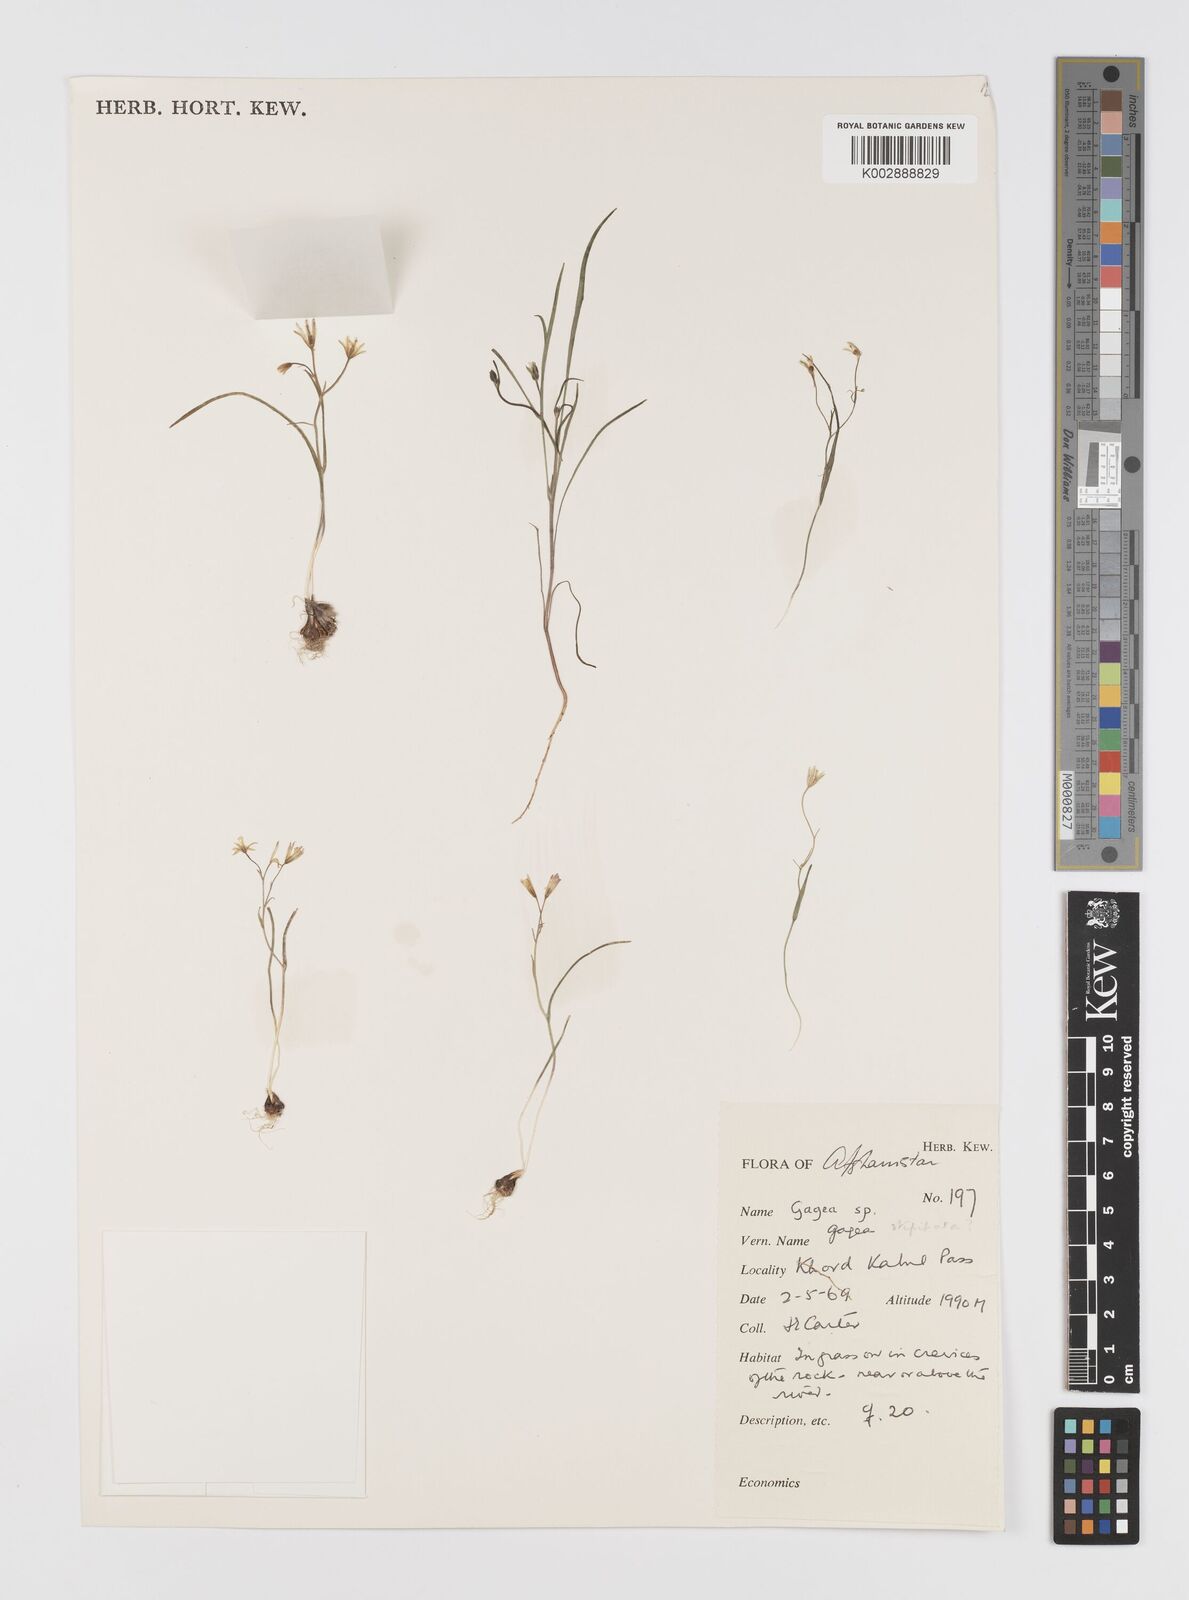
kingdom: Plantae
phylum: Tracheophyta
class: Liliopsida
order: Liliales
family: Liliaceae
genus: Gagea
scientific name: Gagea
